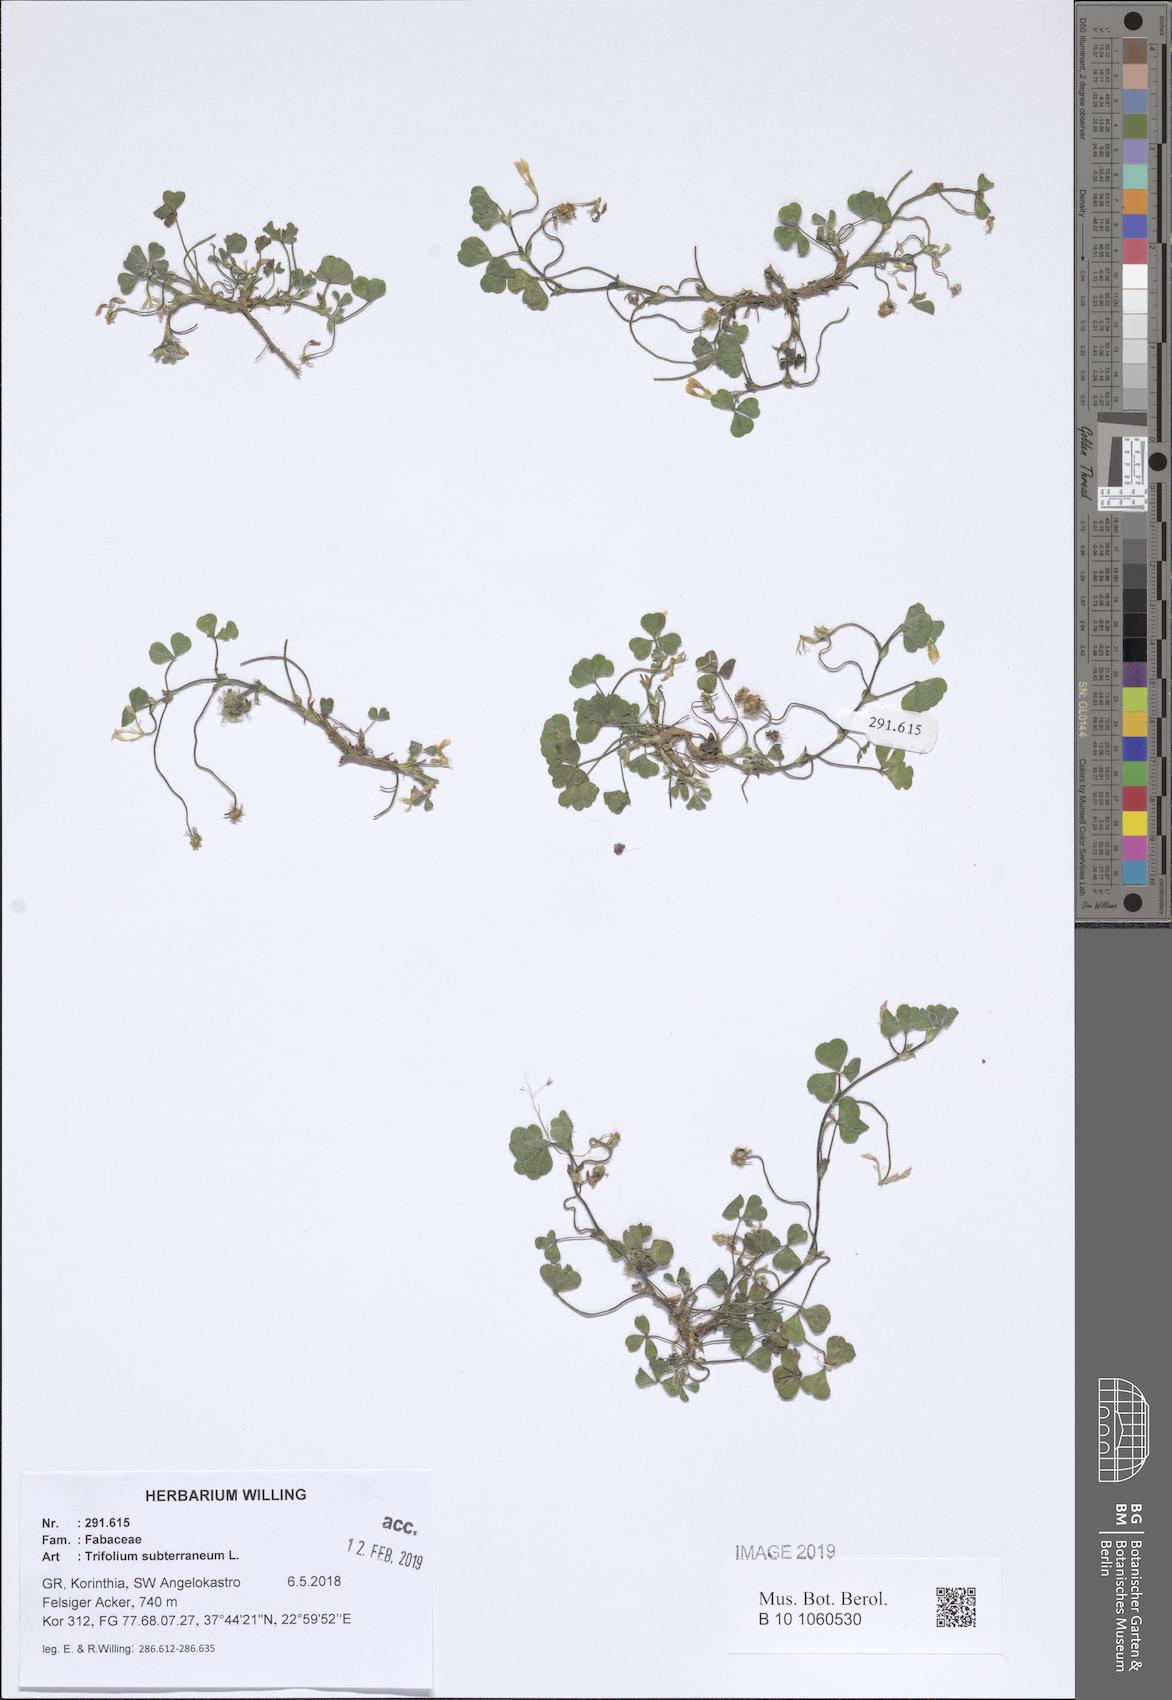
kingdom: Plantae
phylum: Tracheophyta
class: Magnoliopsida
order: Fabales
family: Fabaceae
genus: Trifolium
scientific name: Trifolium subterraneum
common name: Subterranean clover
